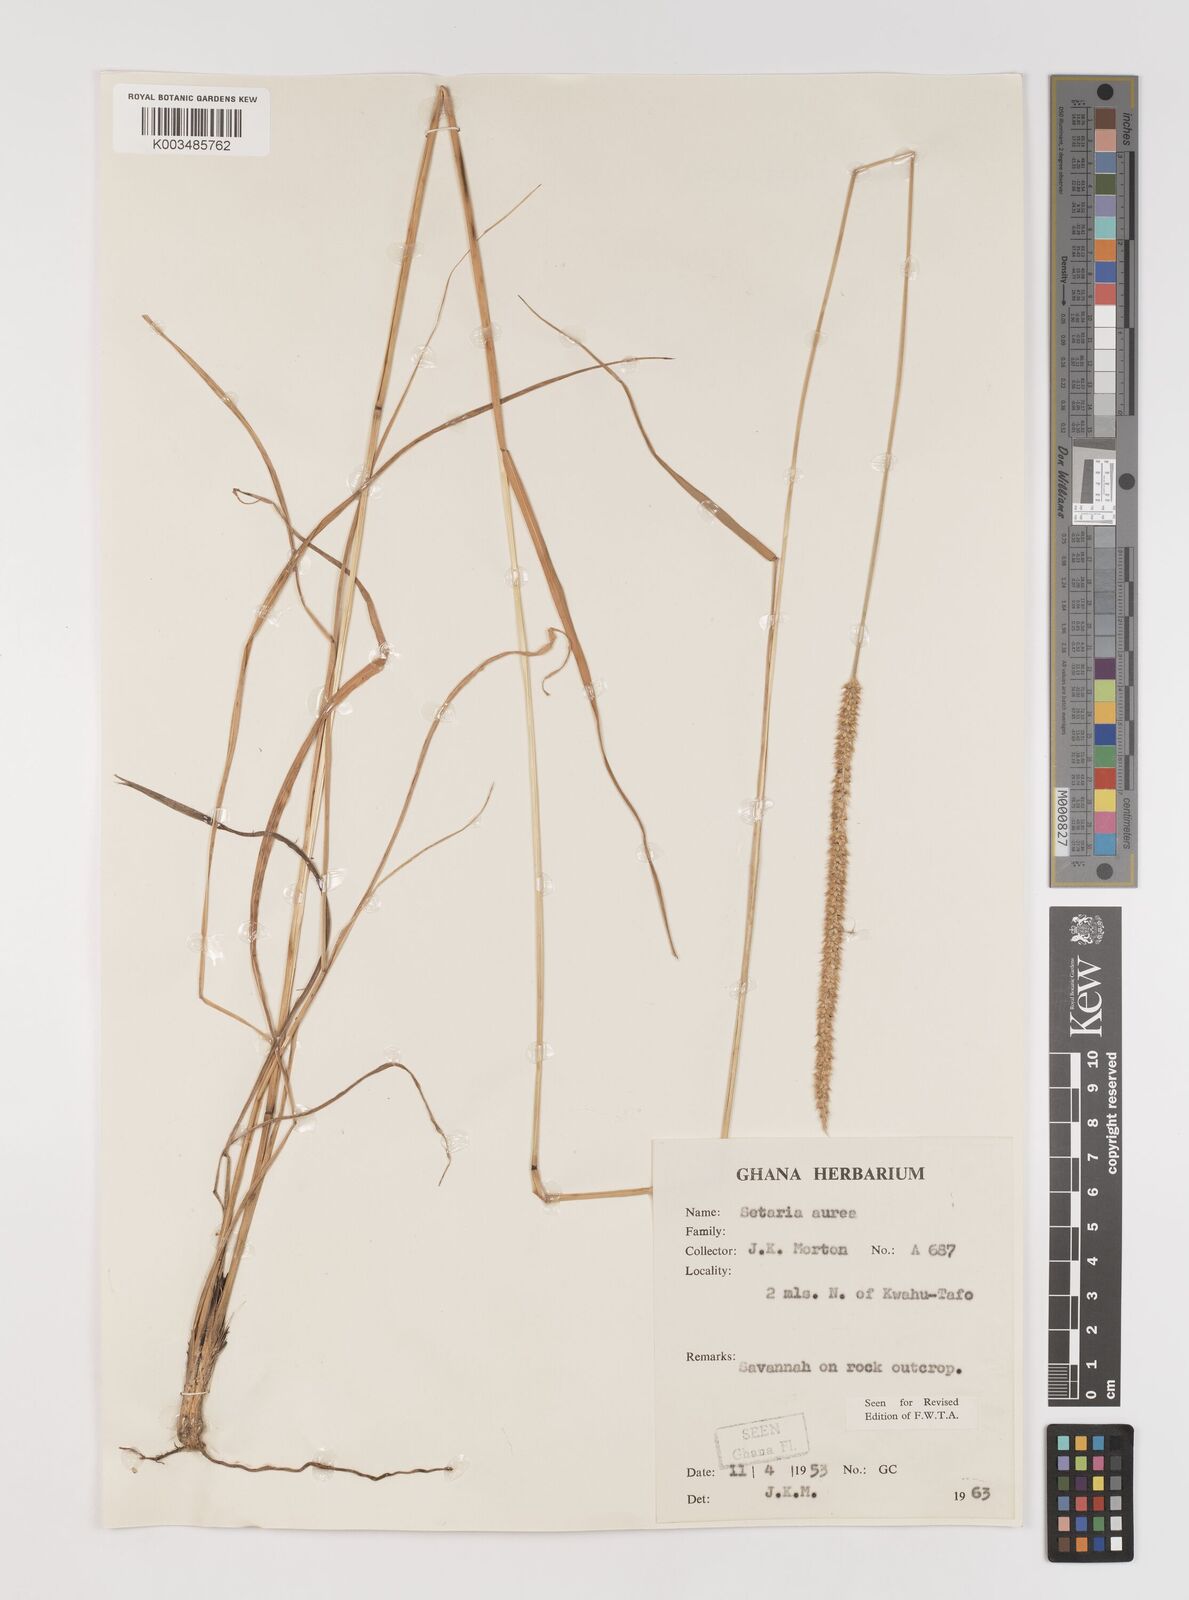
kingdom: Plantae
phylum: Tracheophyta
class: Liliopsida
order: Poales
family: Poaceae
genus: Setaria
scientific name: Setaria sphacelata
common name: African bristlegrass
